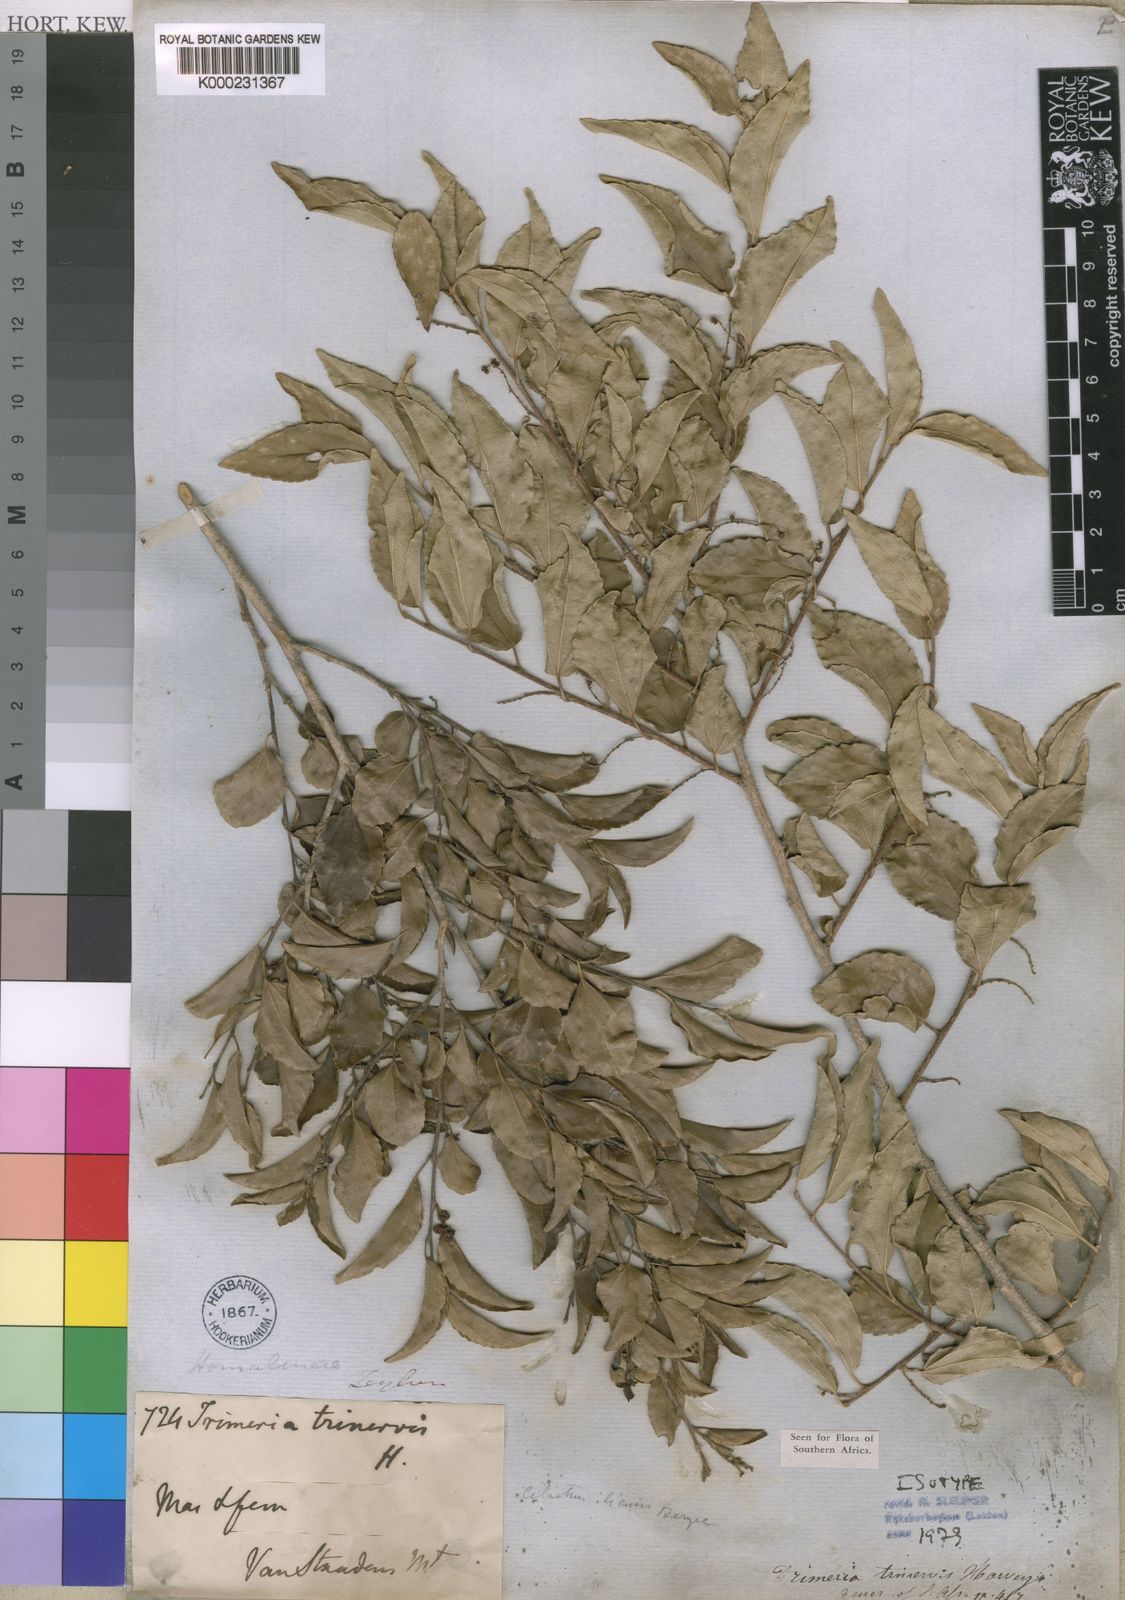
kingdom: Plantae
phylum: Tracheophyta
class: Magnoliopsida
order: Malpighiales
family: Salicaceae
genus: Trimeria
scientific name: Trimeria trinervis
